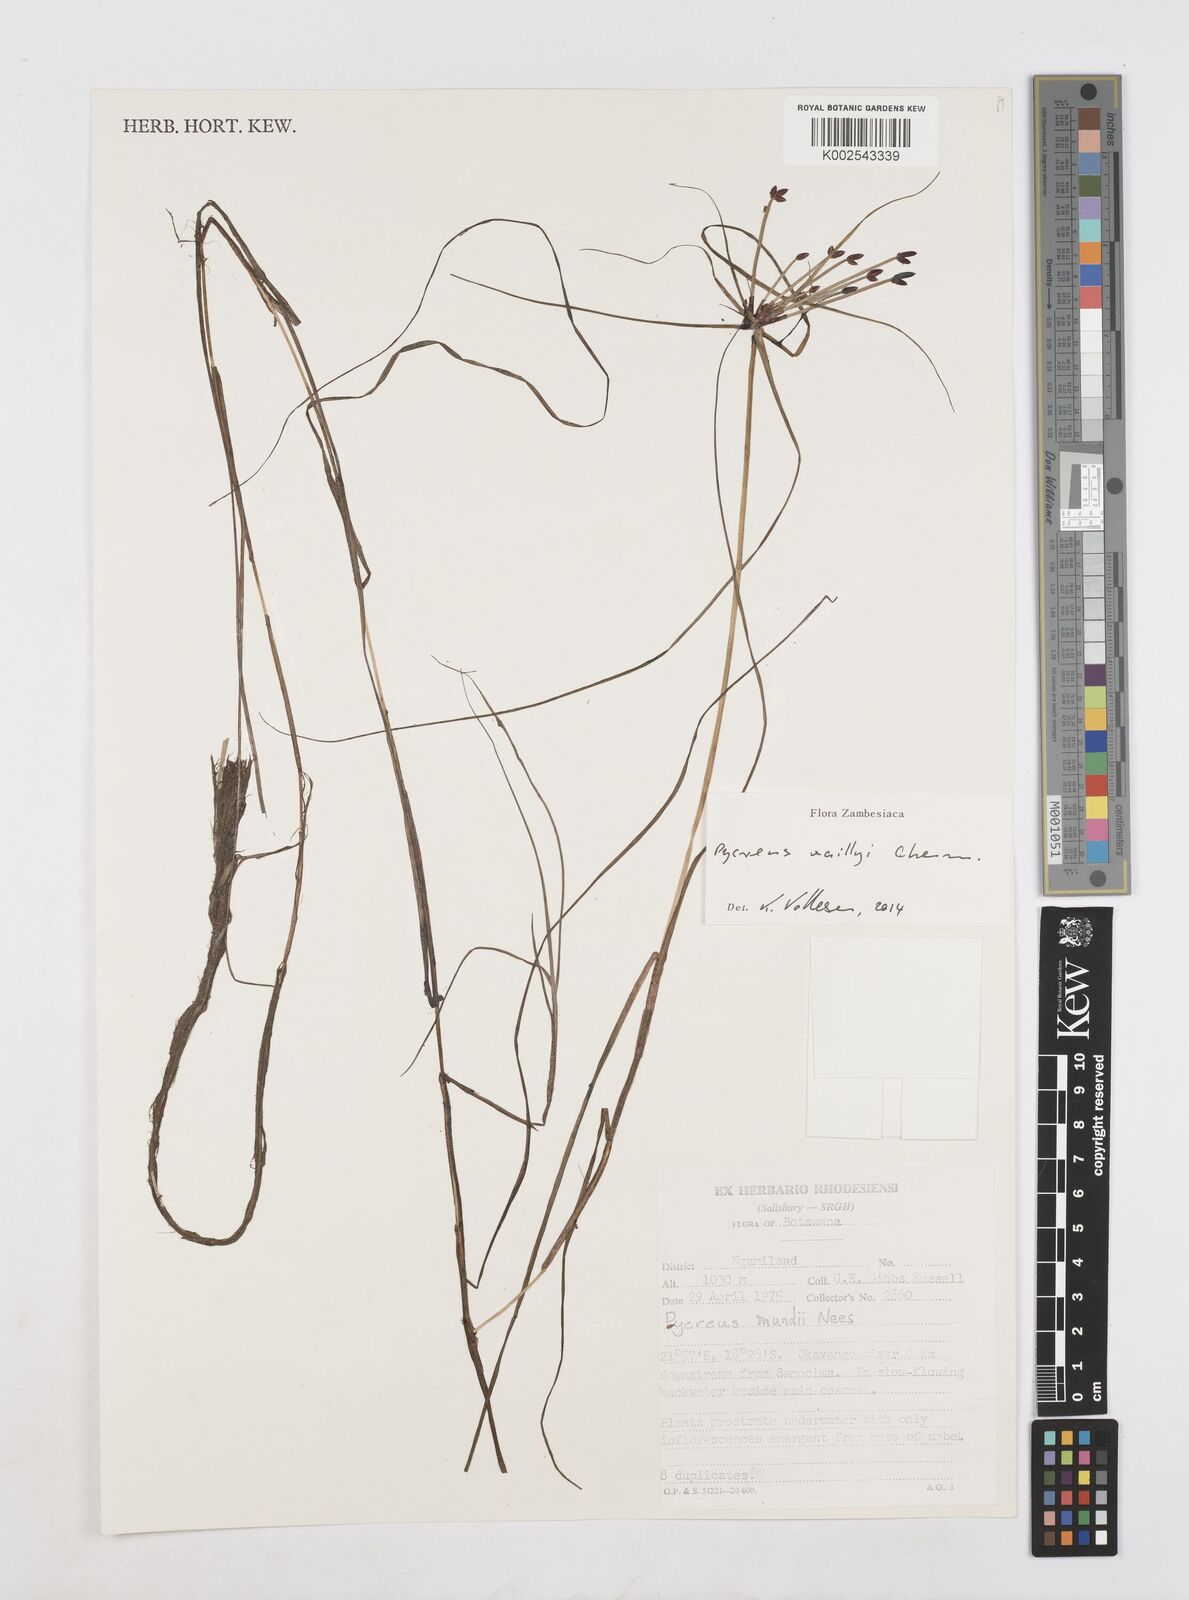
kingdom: Plantae
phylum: Tracheophyta
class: Liliopsida
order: Poales
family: Cyperaceae
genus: Cyperus
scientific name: Cyperus waillyi
